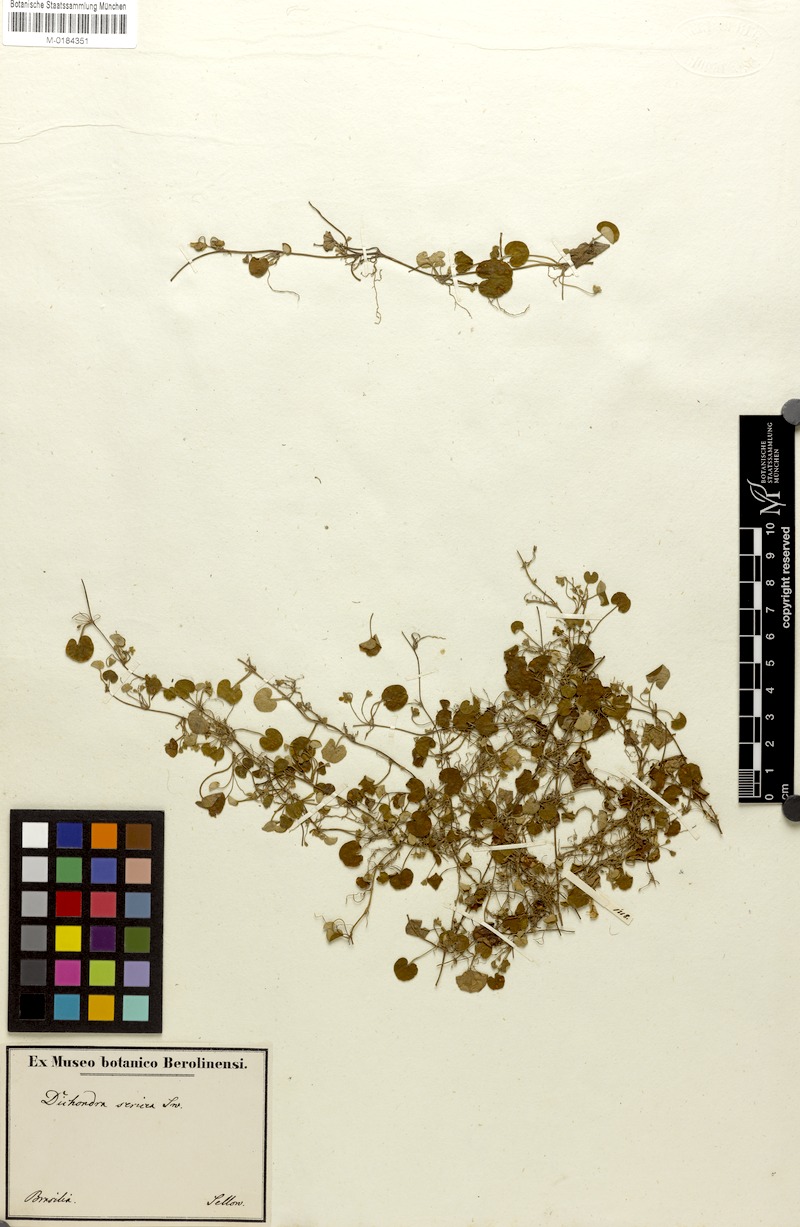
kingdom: Plantae
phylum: Tracheophyta
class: Magnoliopsida
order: Solanales
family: Convolvulaceae
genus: Dichondra
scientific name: Dichondra sericea
